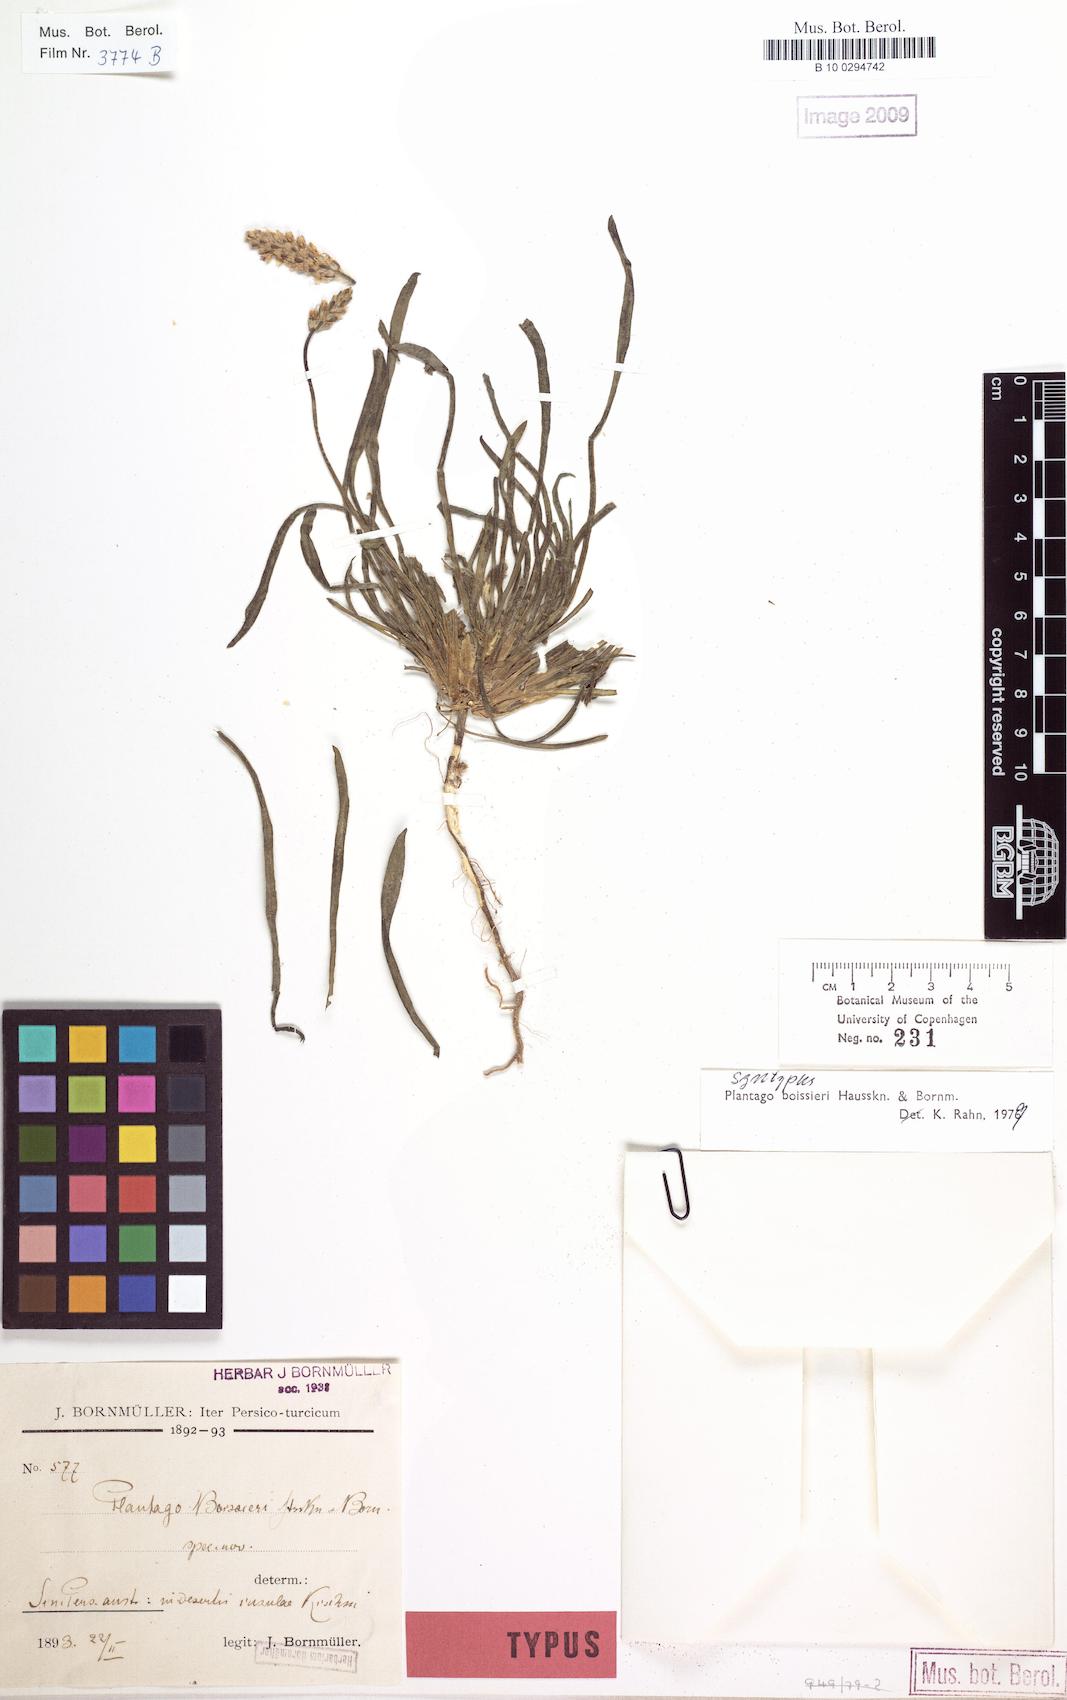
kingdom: Plantae
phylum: Tracheophyta
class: Magnoliopsida
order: Lamiales
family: Plantaginaceae
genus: Plantago
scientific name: Plantago boissieri
